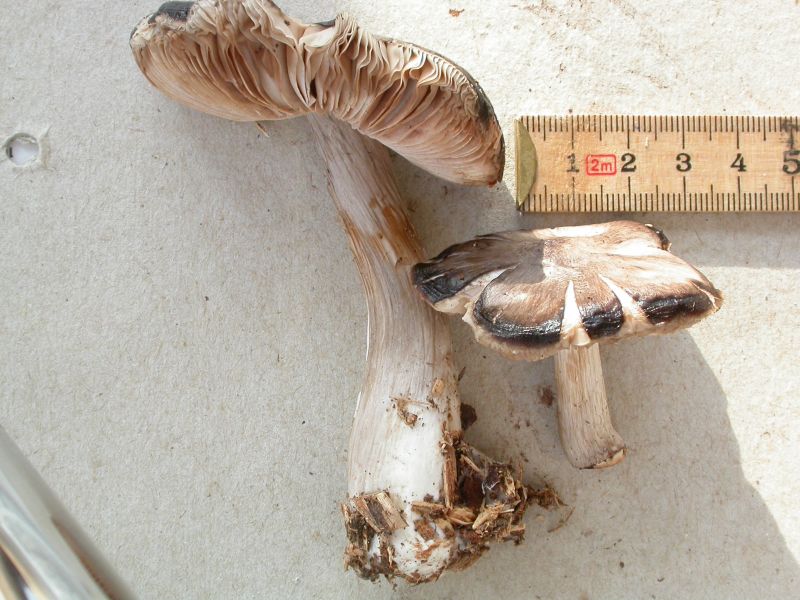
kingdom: Fungi
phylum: Basidiomycota
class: Agaricomycetes
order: Agaricales
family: Pluteaceae
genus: Pluteus
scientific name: Pluteus pouzarianus
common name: plantage-skærmhat
